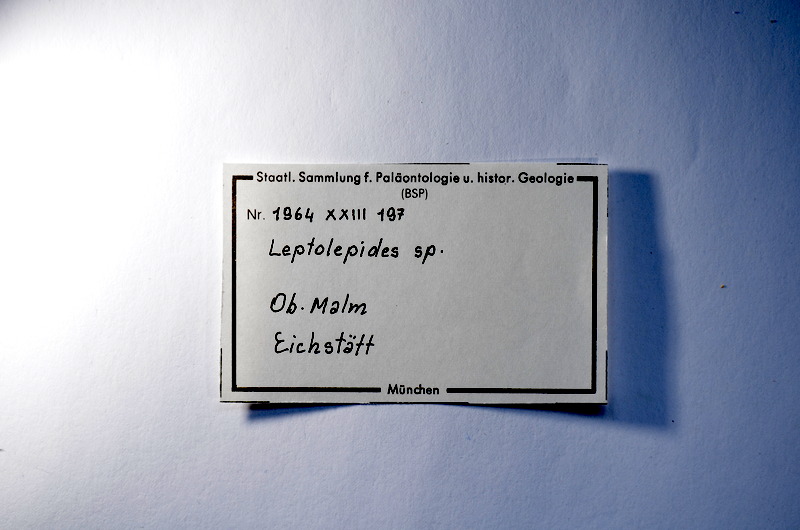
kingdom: Animalia
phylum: Chordata
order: Salmoniformes
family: Orthogonikleithridae
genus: Leptolepides
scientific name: Leptolepides
